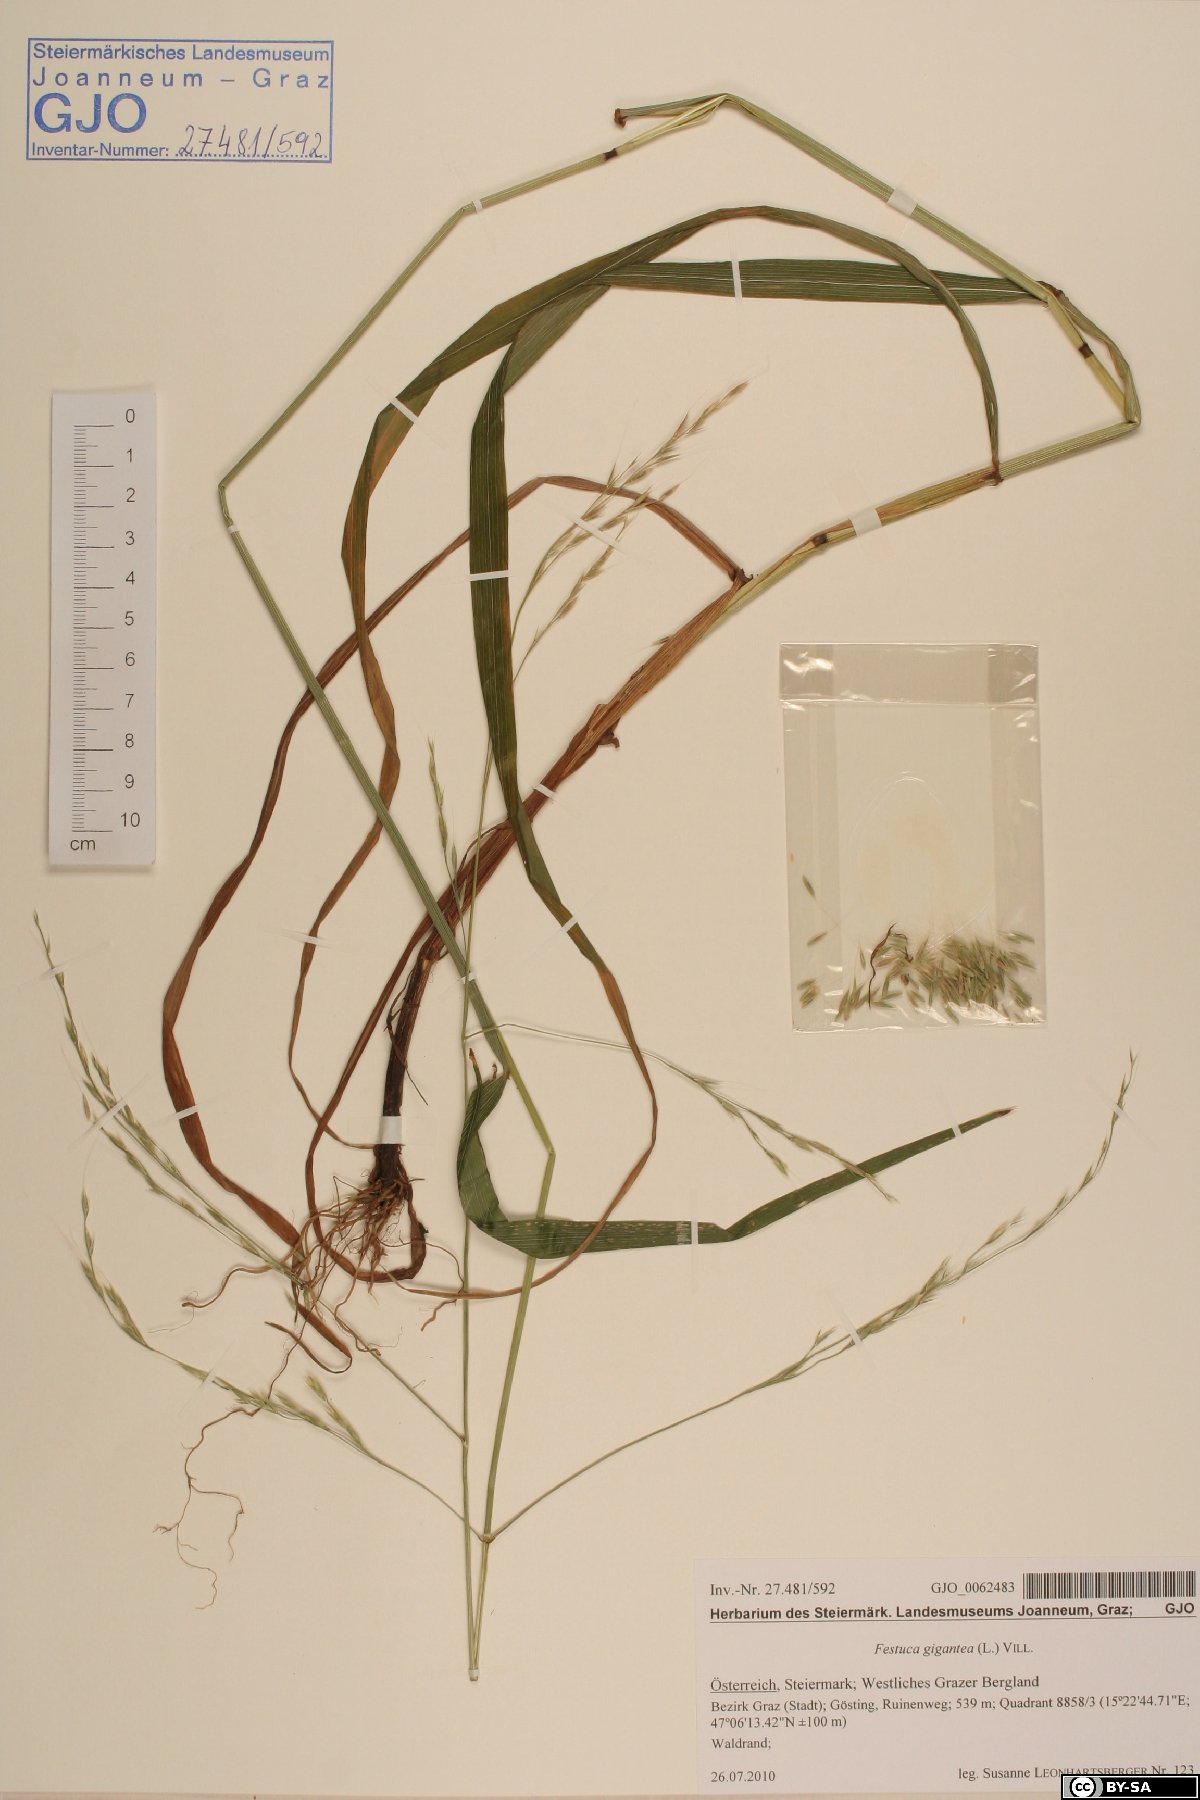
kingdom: Plantae
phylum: Tracheophyta
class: Liliopsida
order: Poales
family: Poaceae
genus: Lolium
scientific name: Lolium giganteum
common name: Giant fescue
